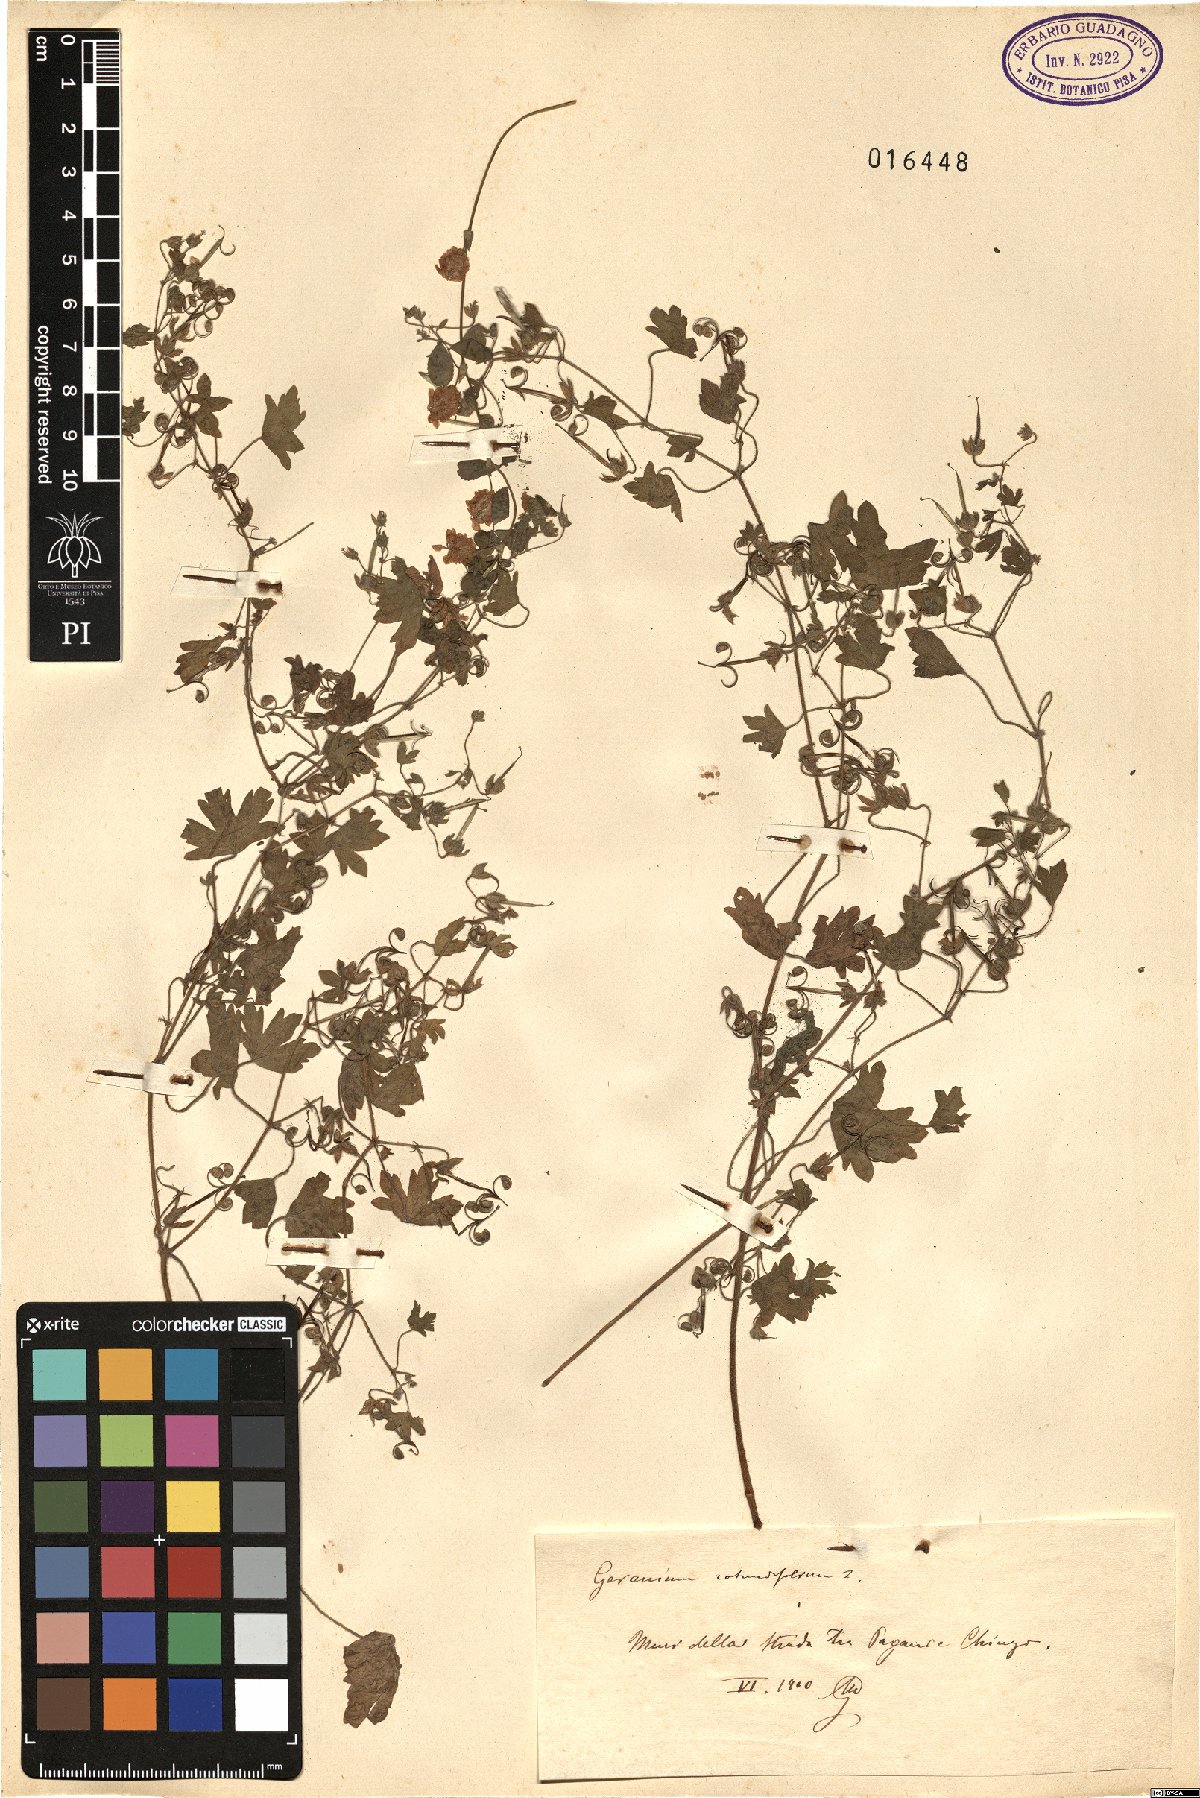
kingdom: Plantae
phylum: Tracheophyta
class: Magnoliopsida
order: Geraniales
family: Geraniaceae
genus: Geranium
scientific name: Geranium rotundifolium
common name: Round-leaved crane's-bill
